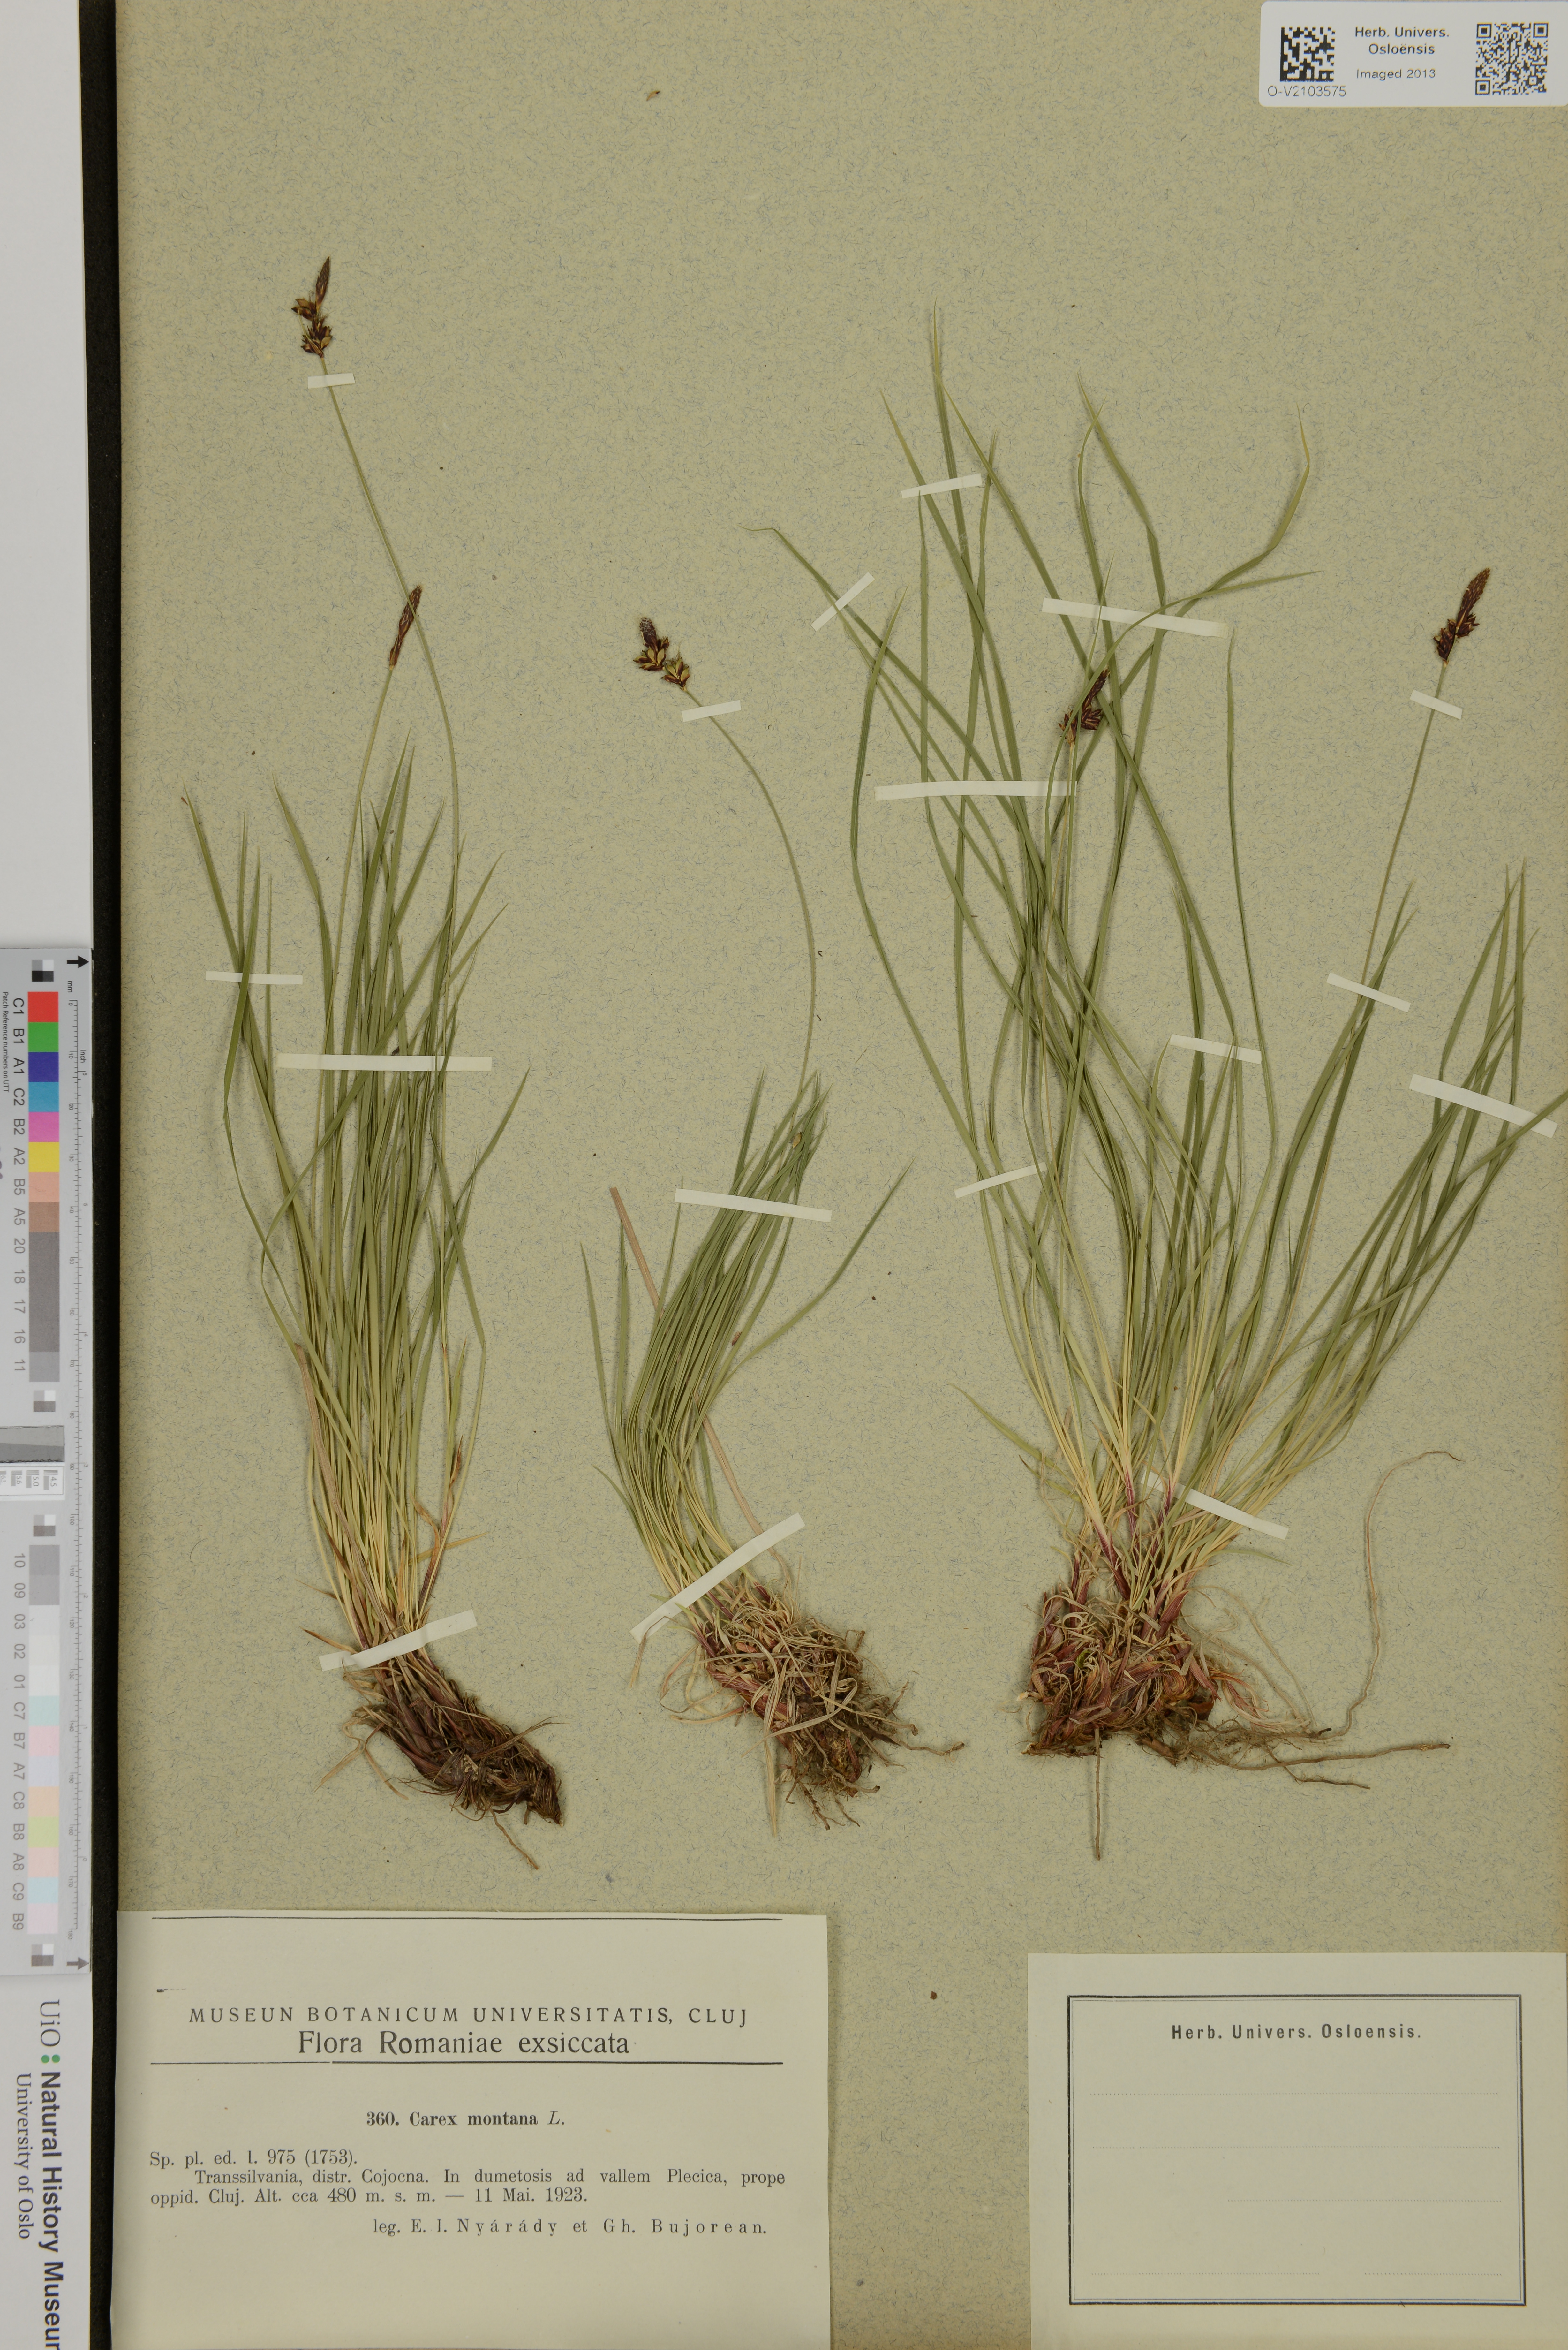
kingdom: Plantae
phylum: Tracheophyta
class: Liliopsida
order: Poales
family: Cyperaceae
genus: Carex
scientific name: Carex montana
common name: Soft-leaved sedge
